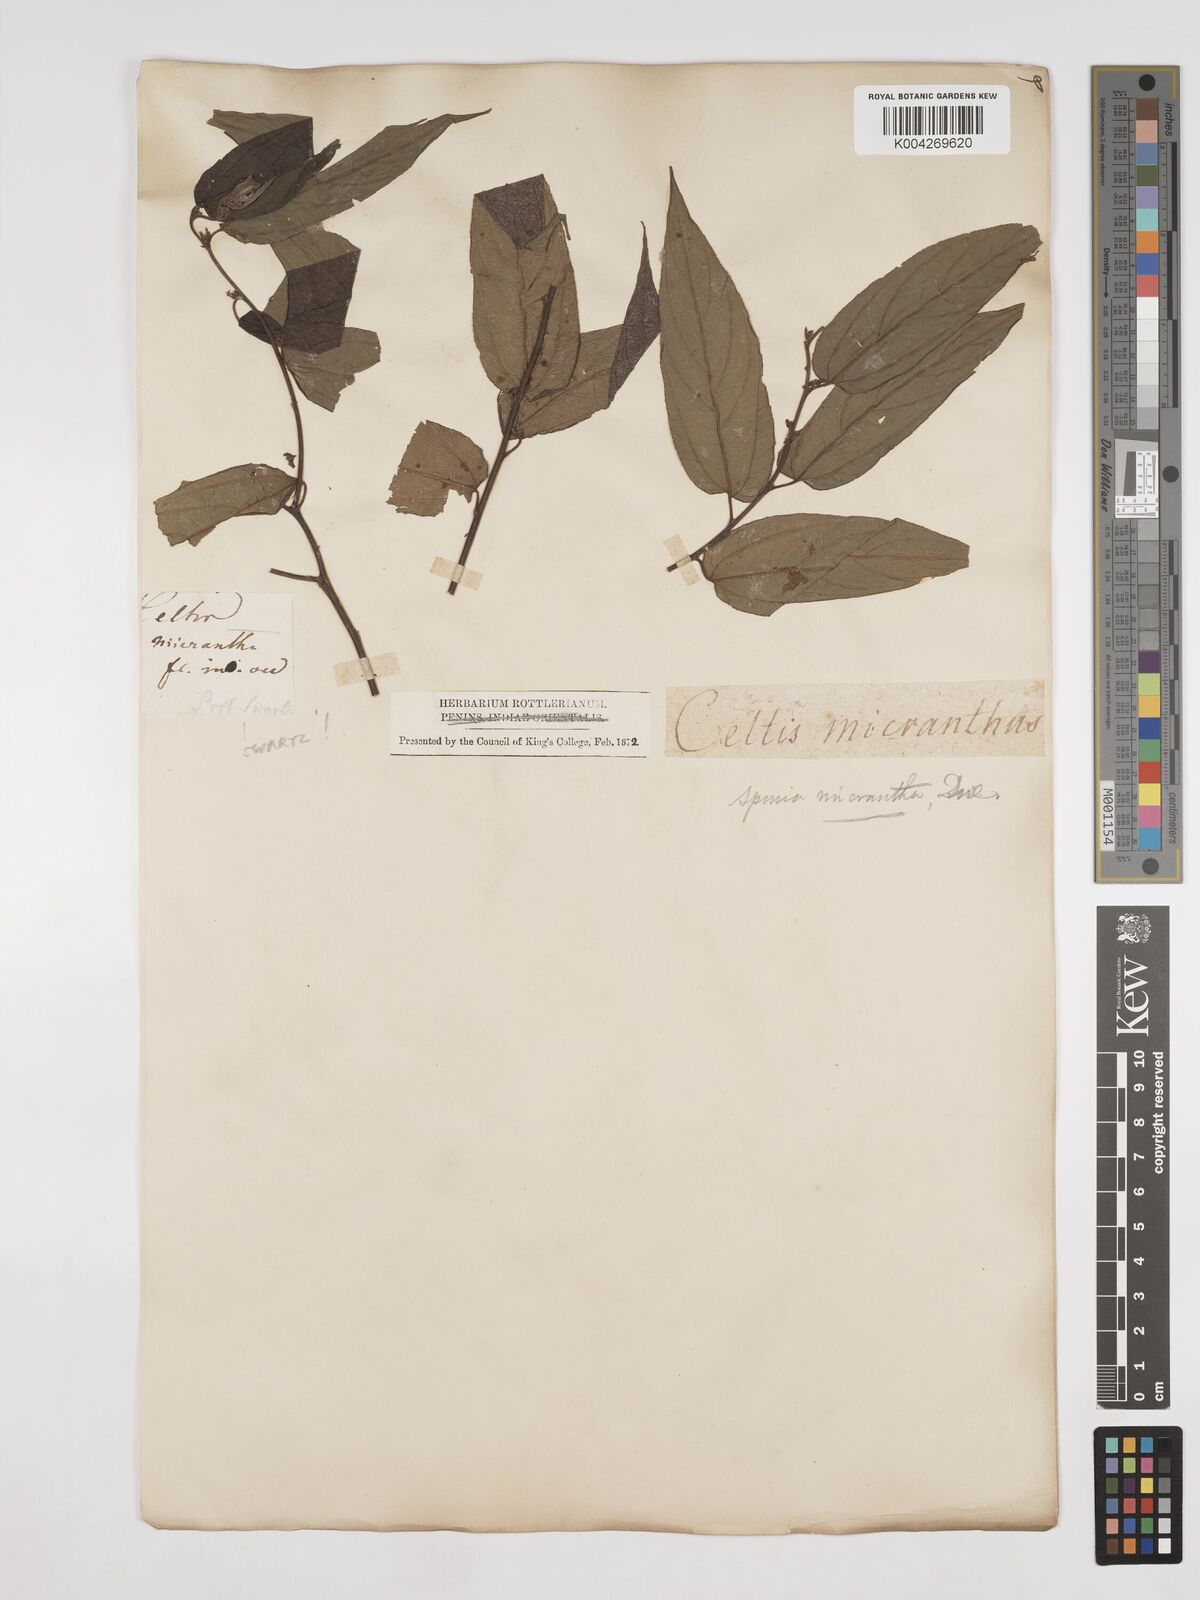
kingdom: Plantae
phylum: Tracheophyta
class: Magnoliopsida
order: Rosales
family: Cannabaceae
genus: Trema
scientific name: Trema micranthum
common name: Jamaican nettletree
